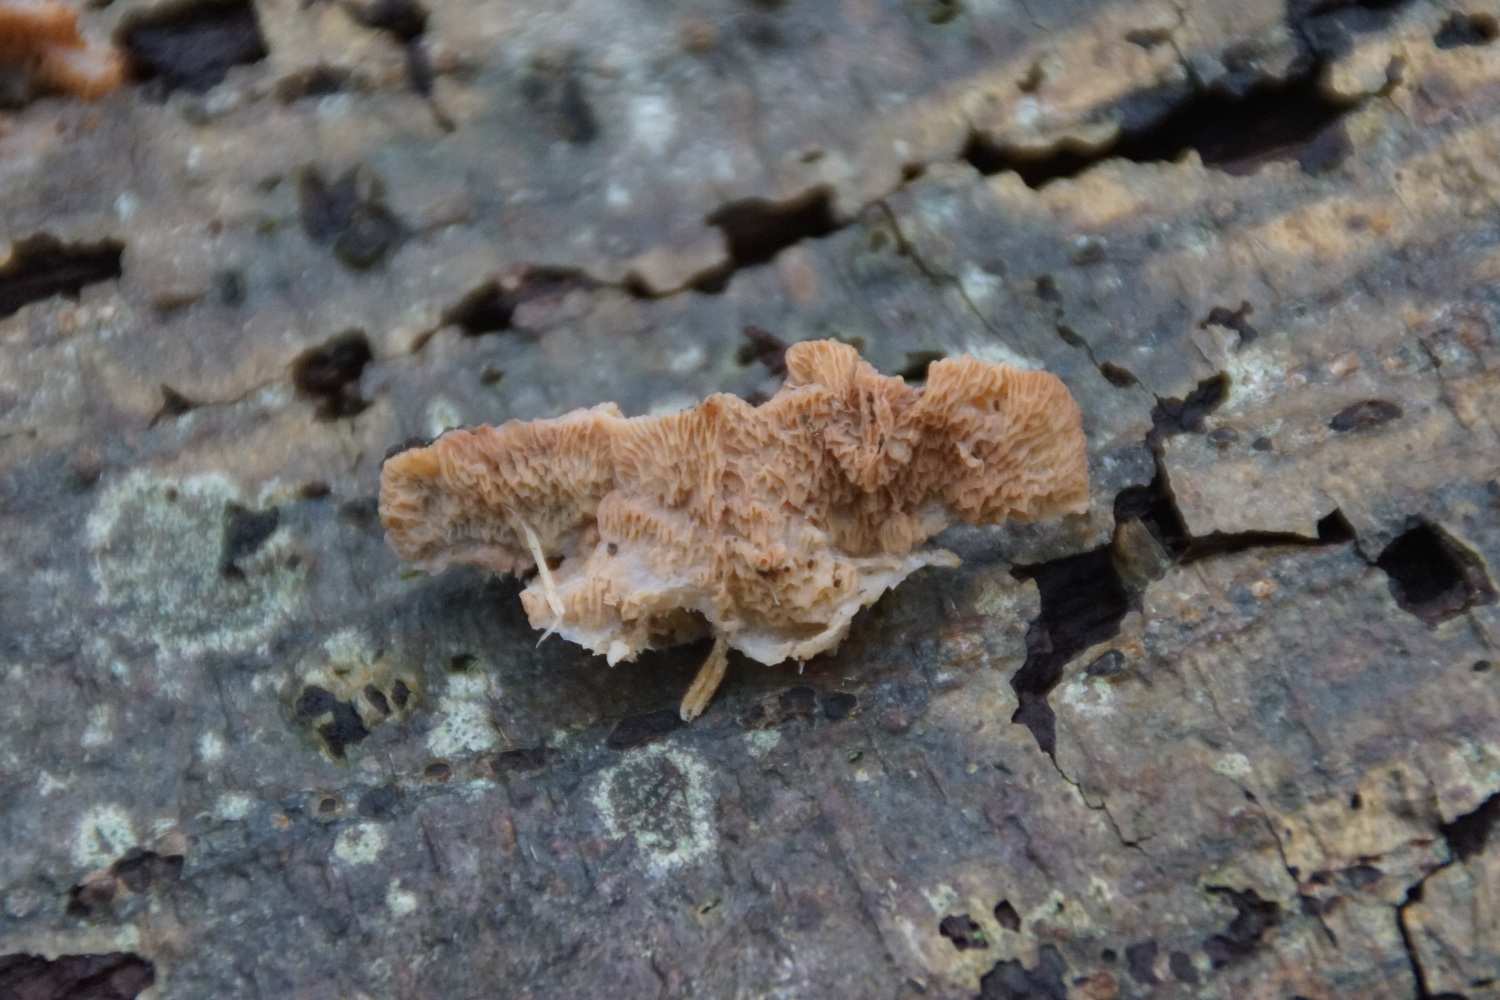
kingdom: Fungi
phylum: Basidiomycota
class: Agaricomycetes
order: Polyporales
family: Meruliaceae
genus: Phlebia
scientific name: Phlebia tremellosa
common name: bævrende åresvamp
